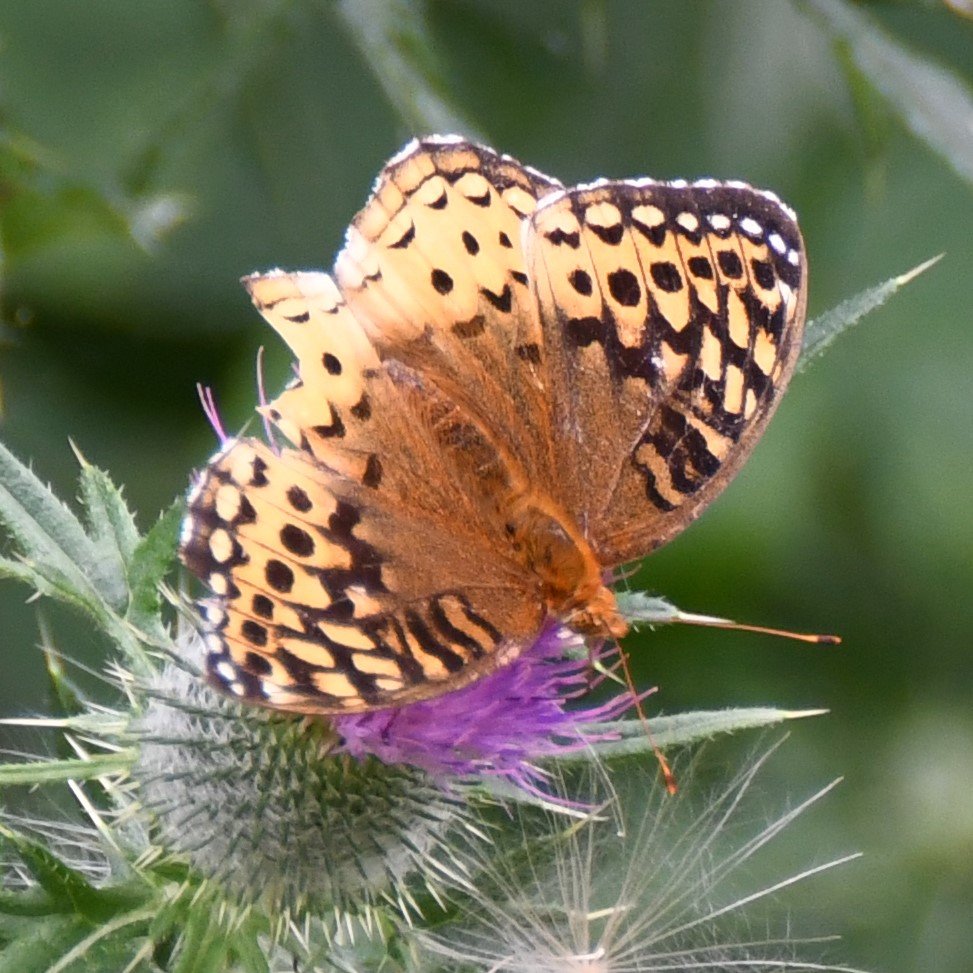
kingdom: Animalia
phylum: Arthropoda
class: Insecta
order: Lepidoptera
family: Nymphalidae
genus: Speyeria
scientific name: Speyeria cybele
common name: Great Spangled Fritillary
